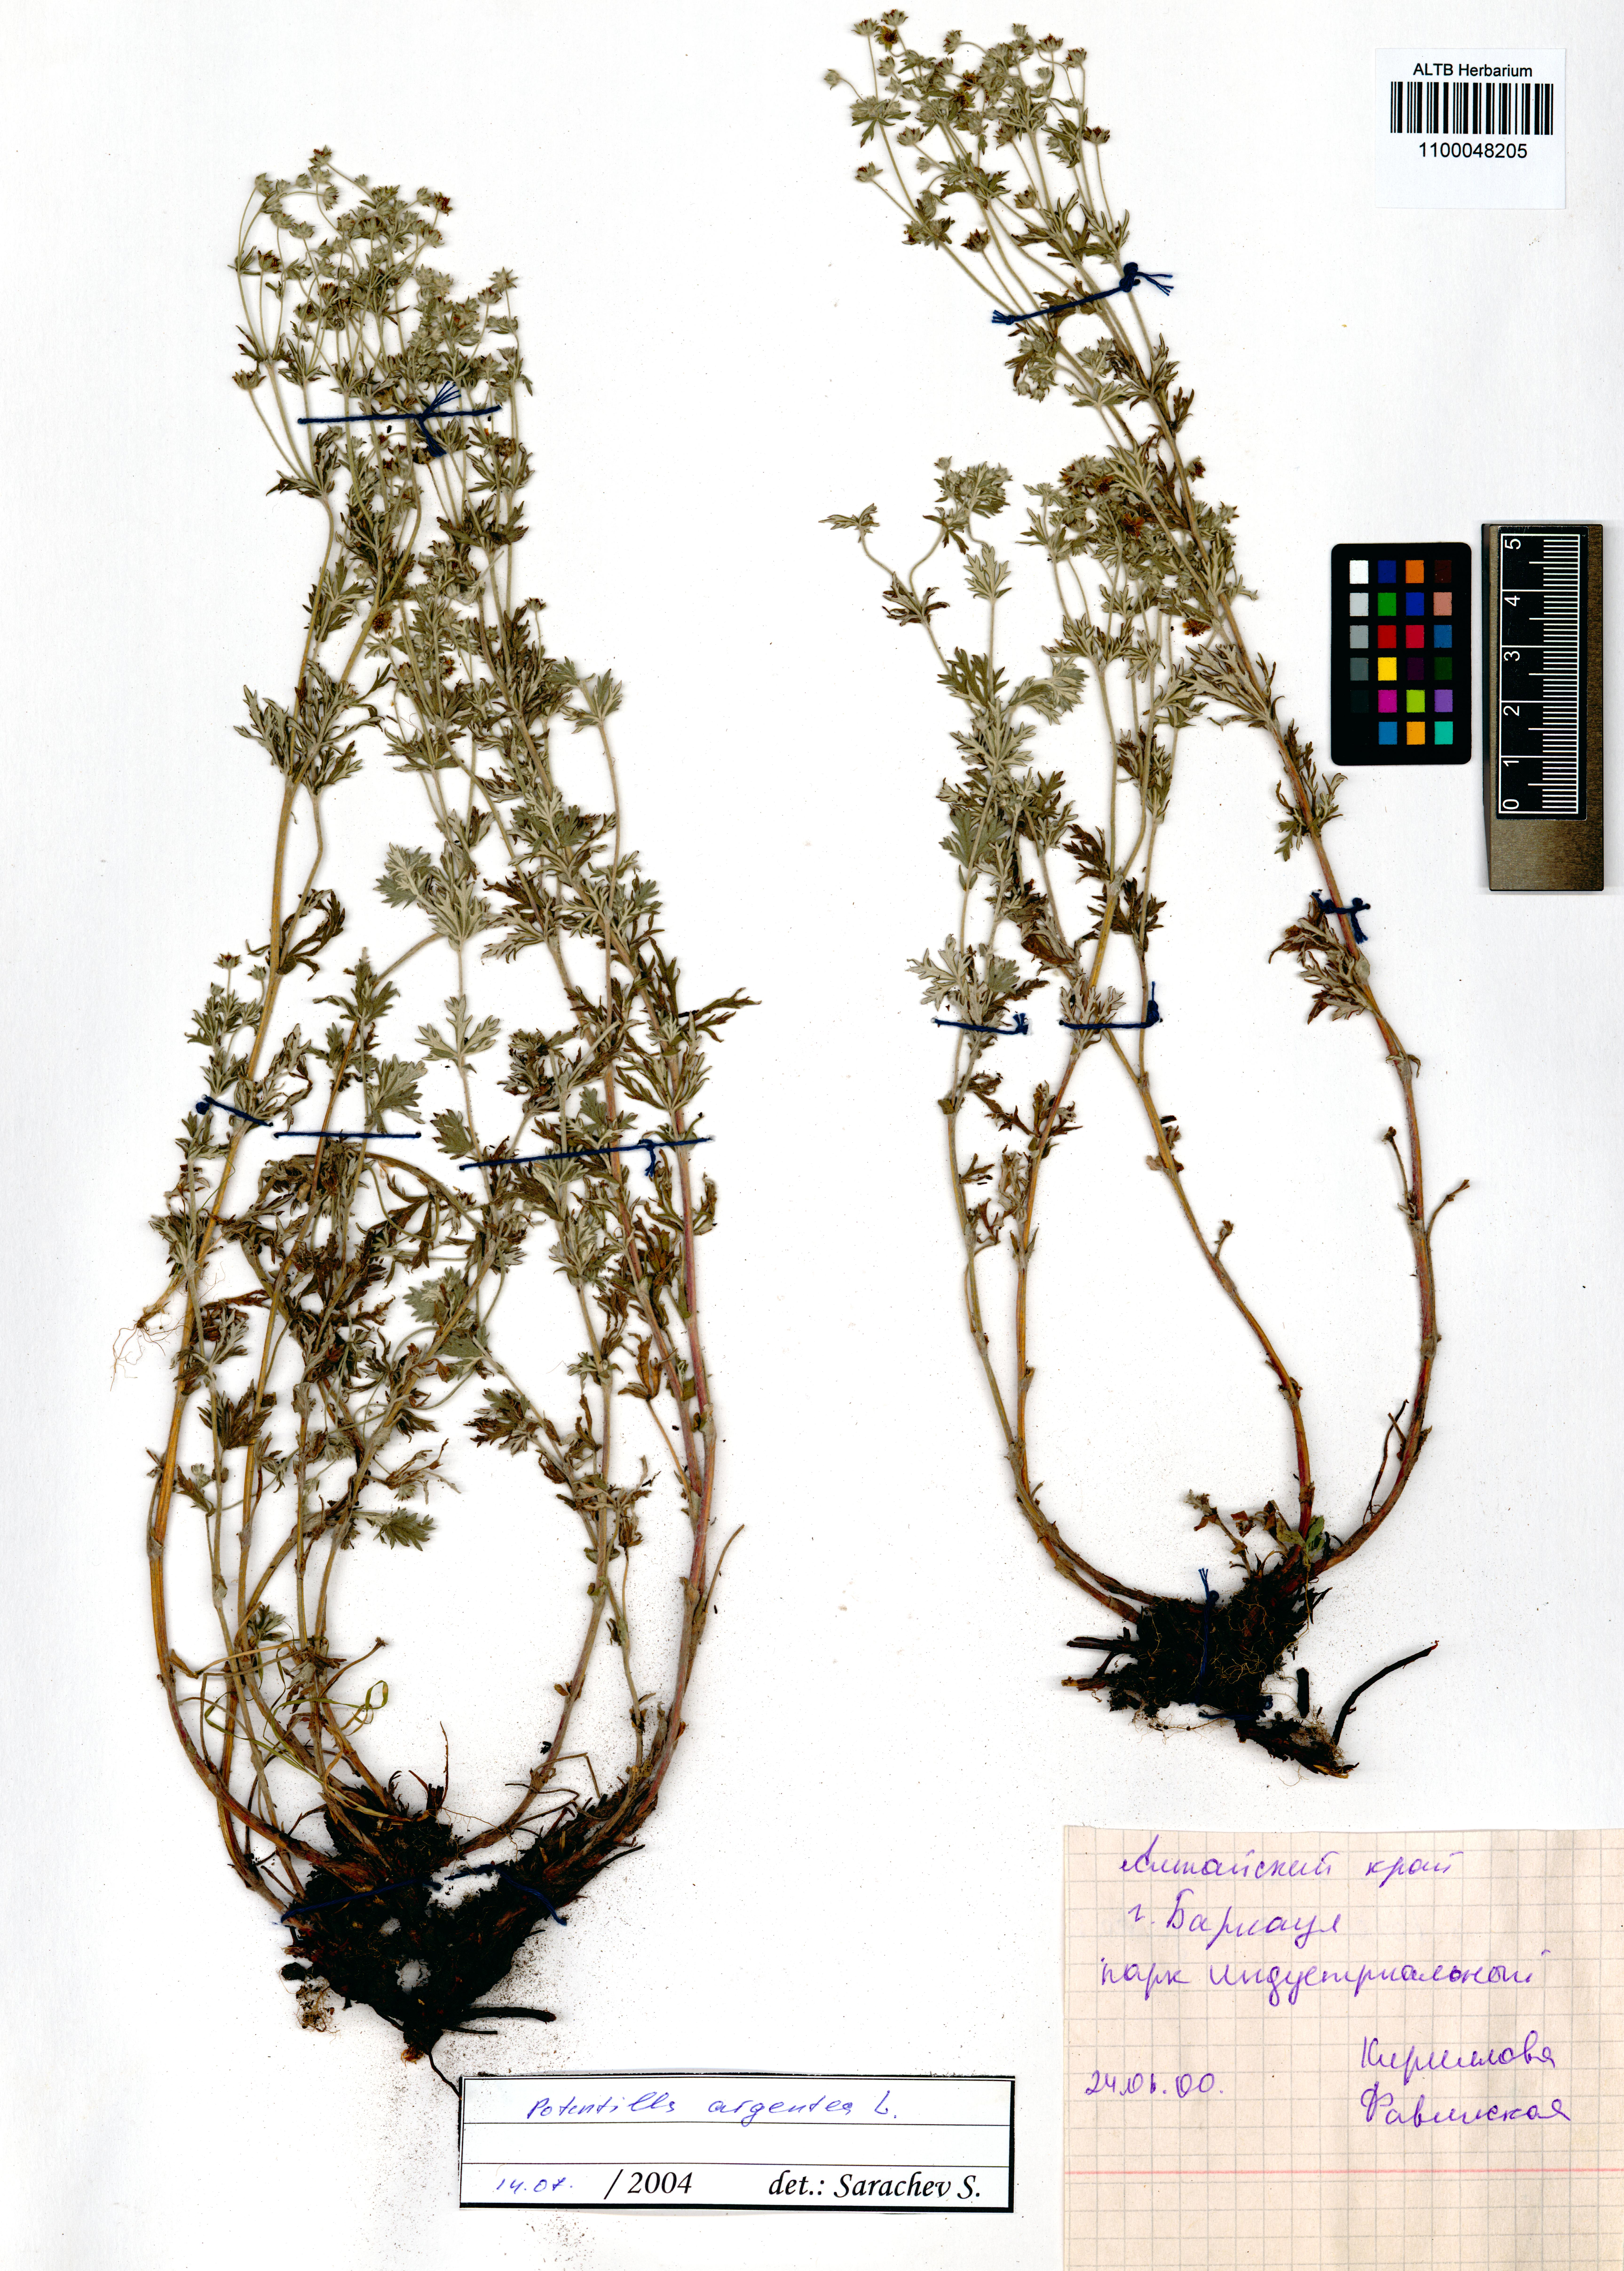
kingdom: Plantae
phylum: Tracheophyta
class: Magnoliopsida
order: Rosales
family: Rosaceae
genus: Potentilla
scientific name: Potentilla argentea
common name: Hoary cinquefoil
